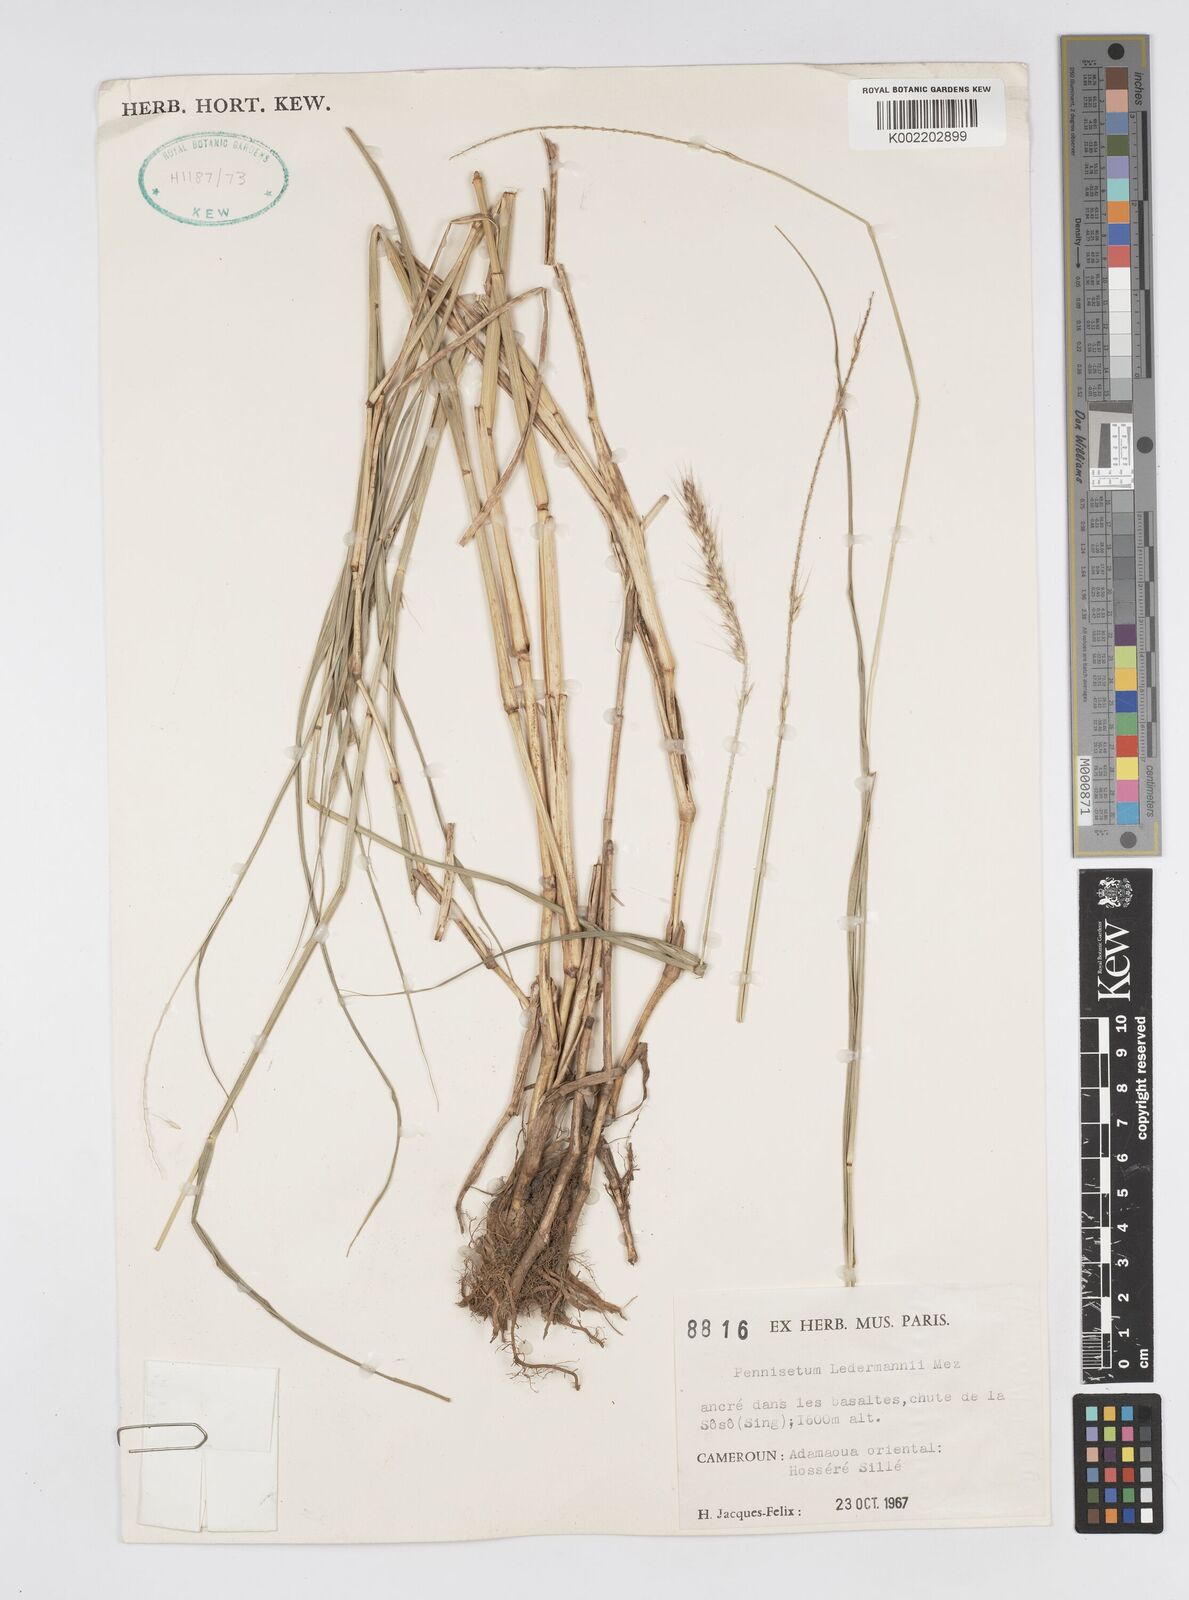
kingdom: Plantae
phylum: Tracheophyta
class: Liliopsida
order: Poales
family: Poaceae
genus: Cenchrus
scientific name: Cenchrus ledermannii
